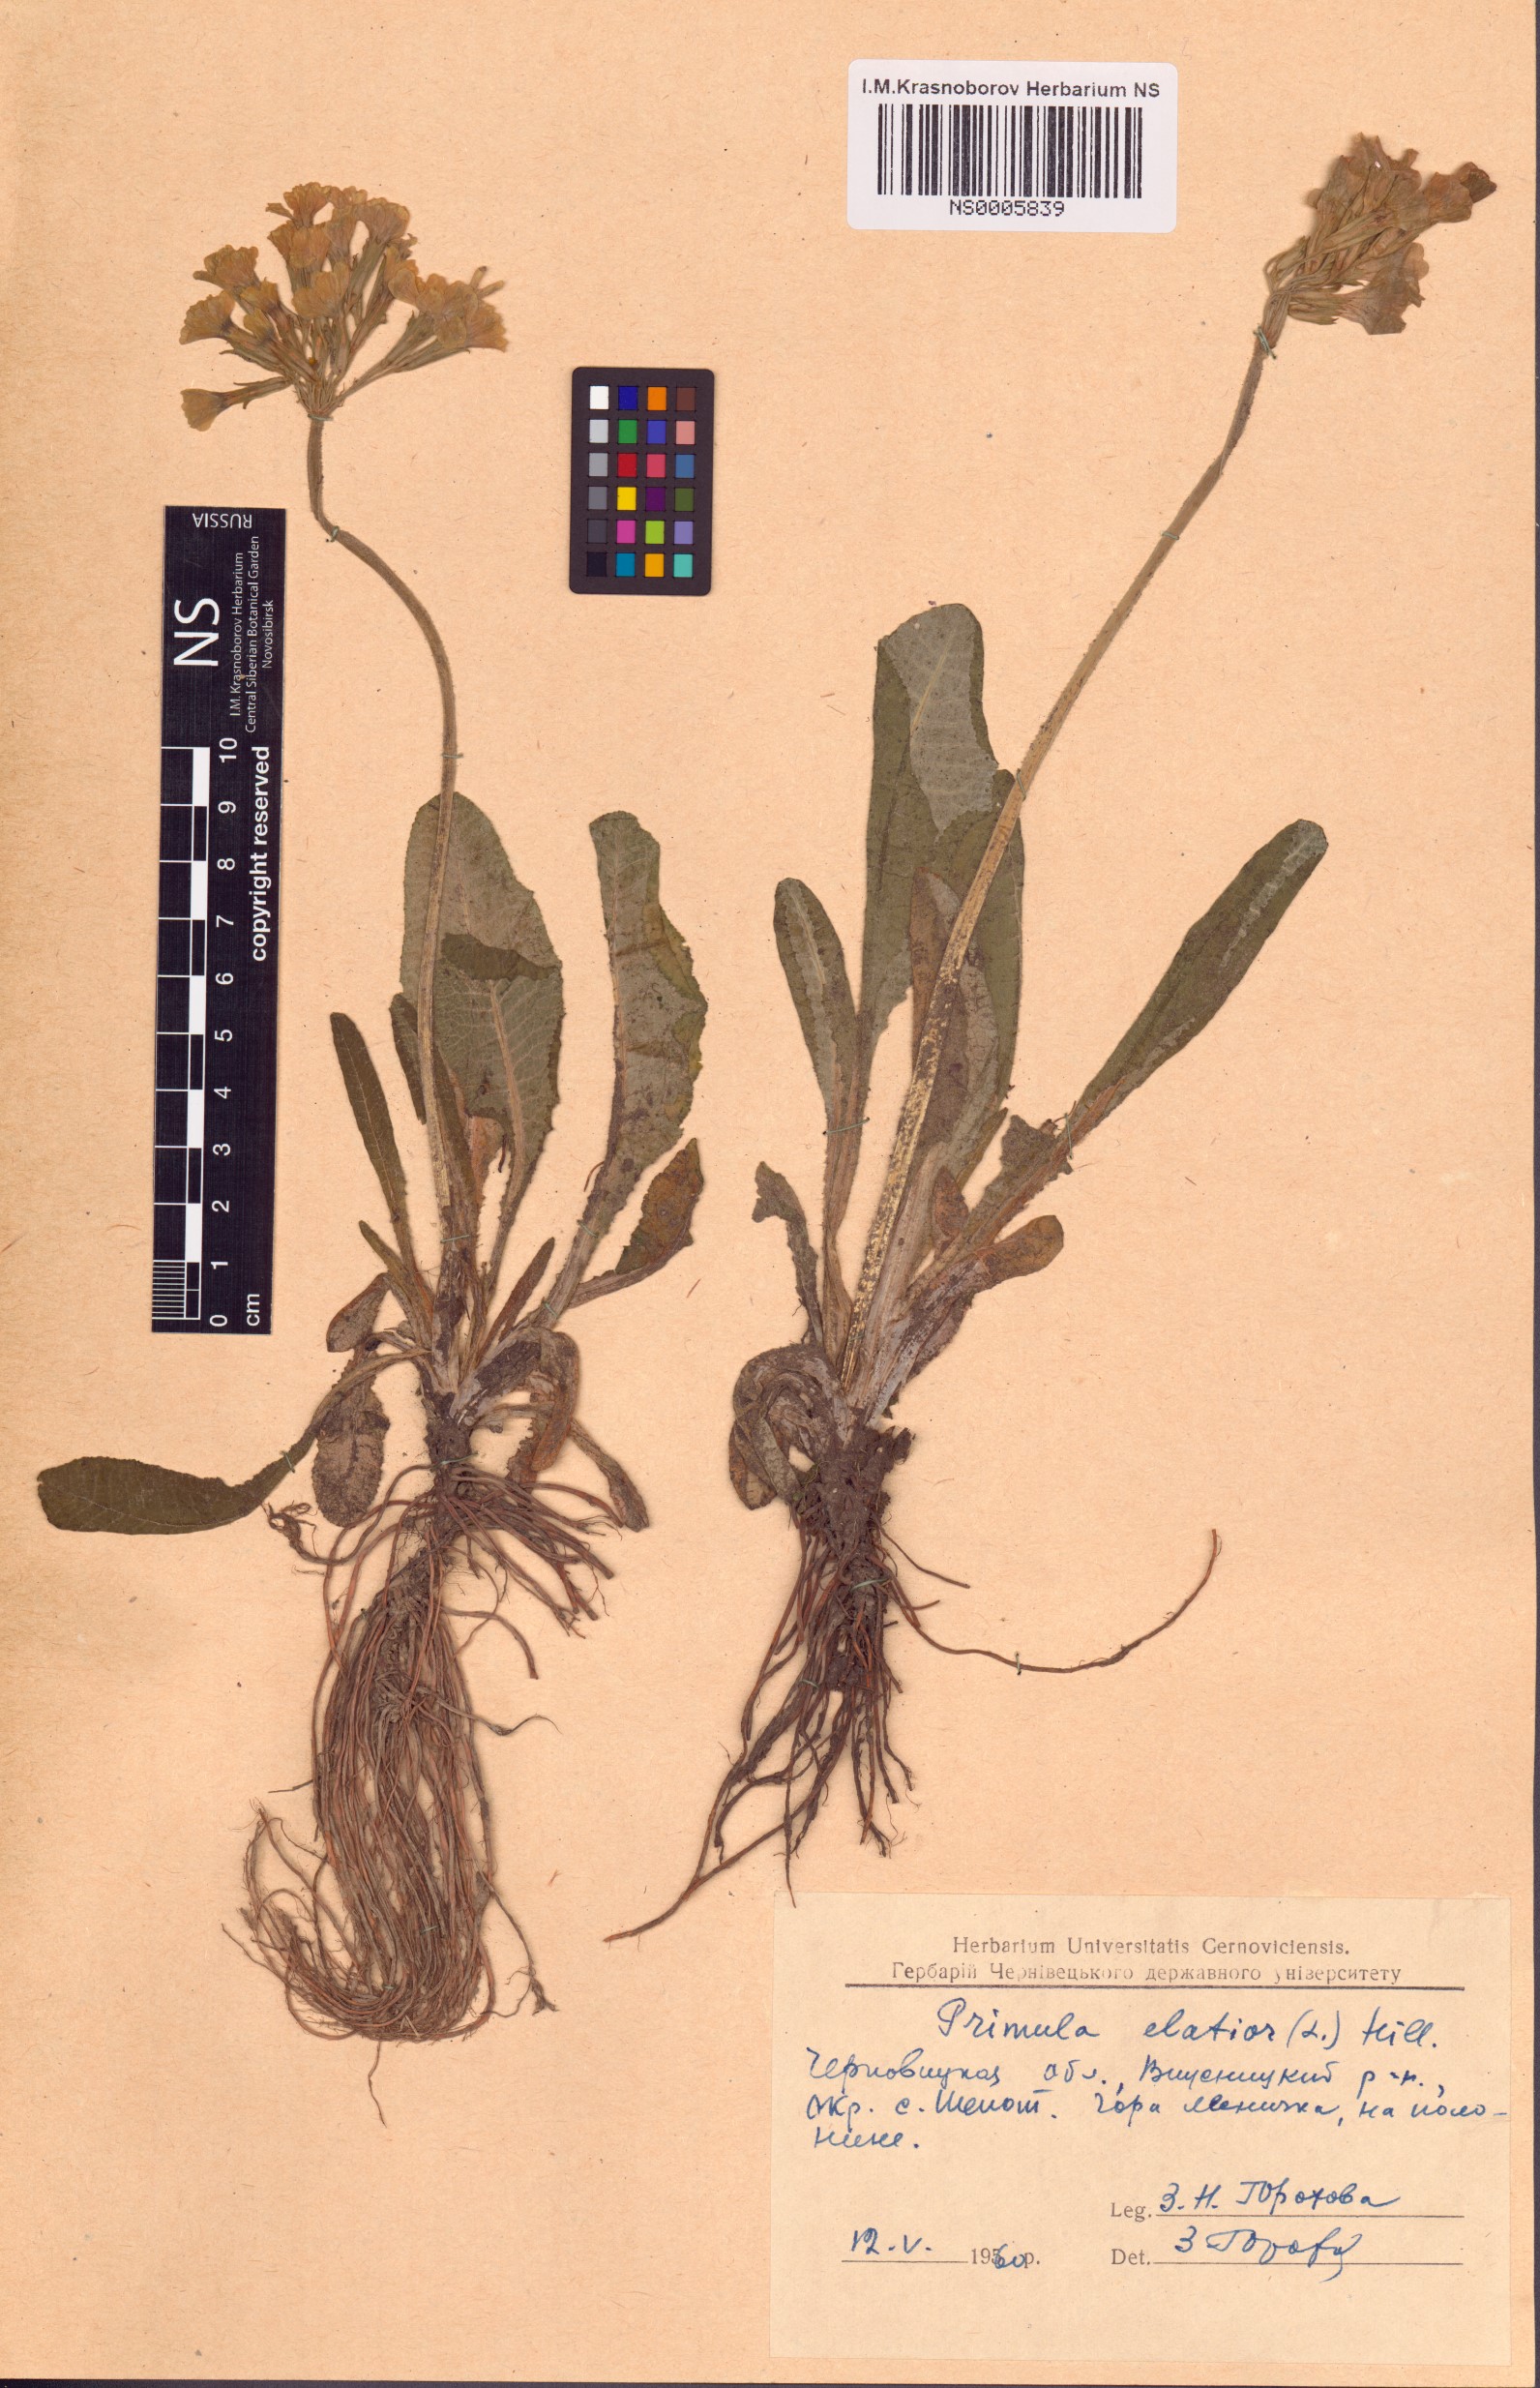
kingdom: Plantae
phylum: Tracheophyta
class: Magnoliopsida
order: Ericales
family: Primulaceae
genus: Primula
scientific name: Primula elatior
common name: Oxlip
